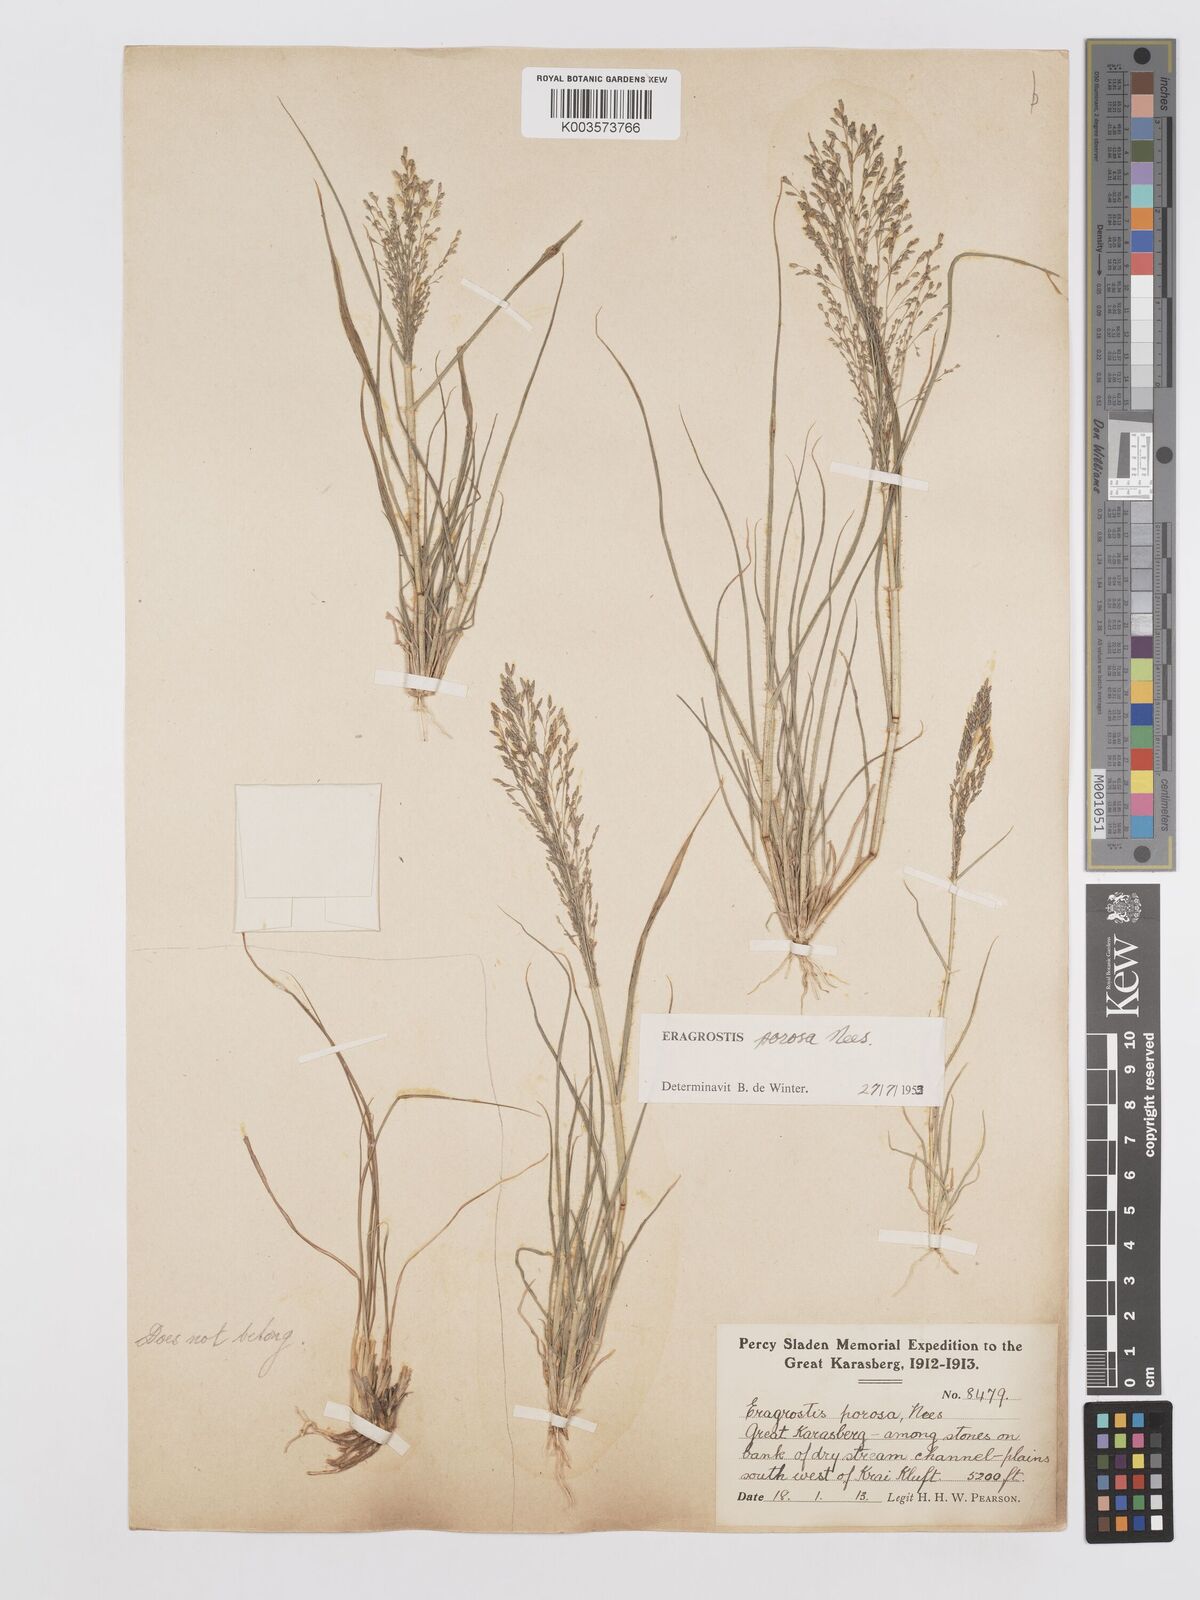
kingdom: Plantae
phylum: Tracheophyta
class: Liliopsida
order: Poales
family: Poaceae
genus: Eragrostis
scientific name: Eragrostis porosa
